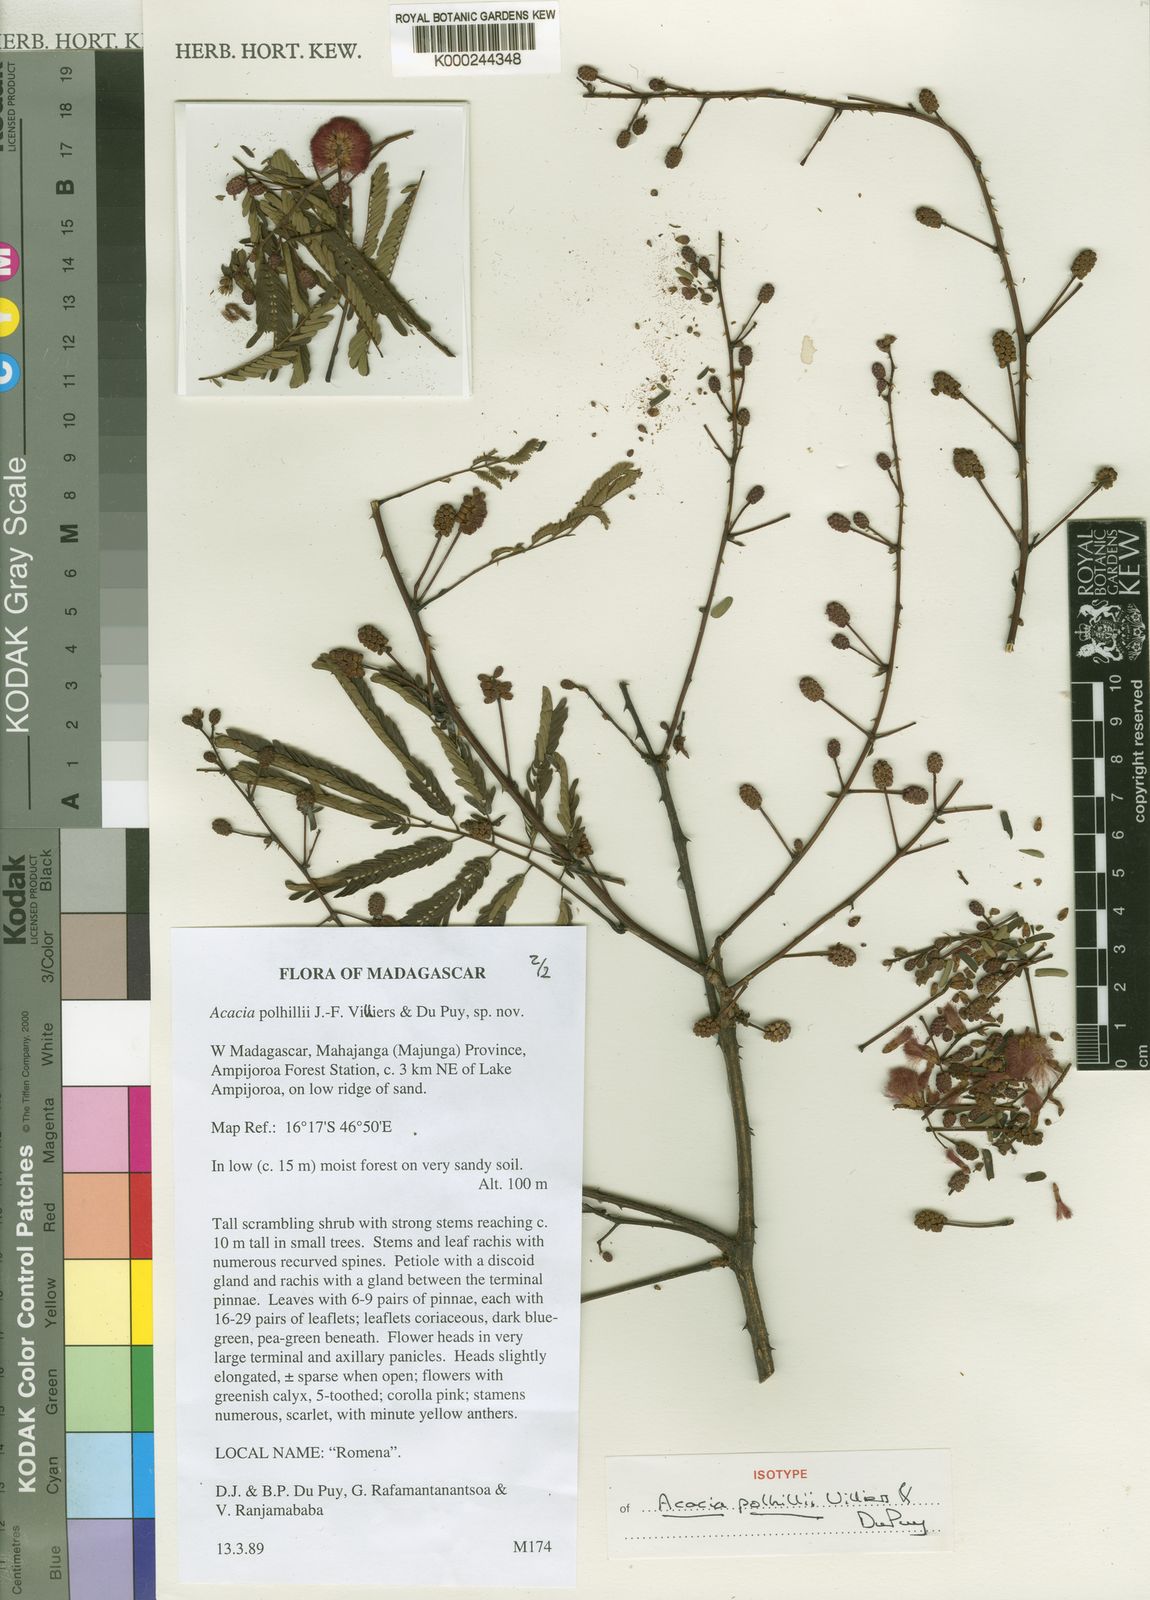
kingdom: Plantae
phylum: Tracheophyta
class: Magnoliopsida
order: Fabales
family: Fabaceae
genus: Senegalia
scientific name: Senegalia polhillii
